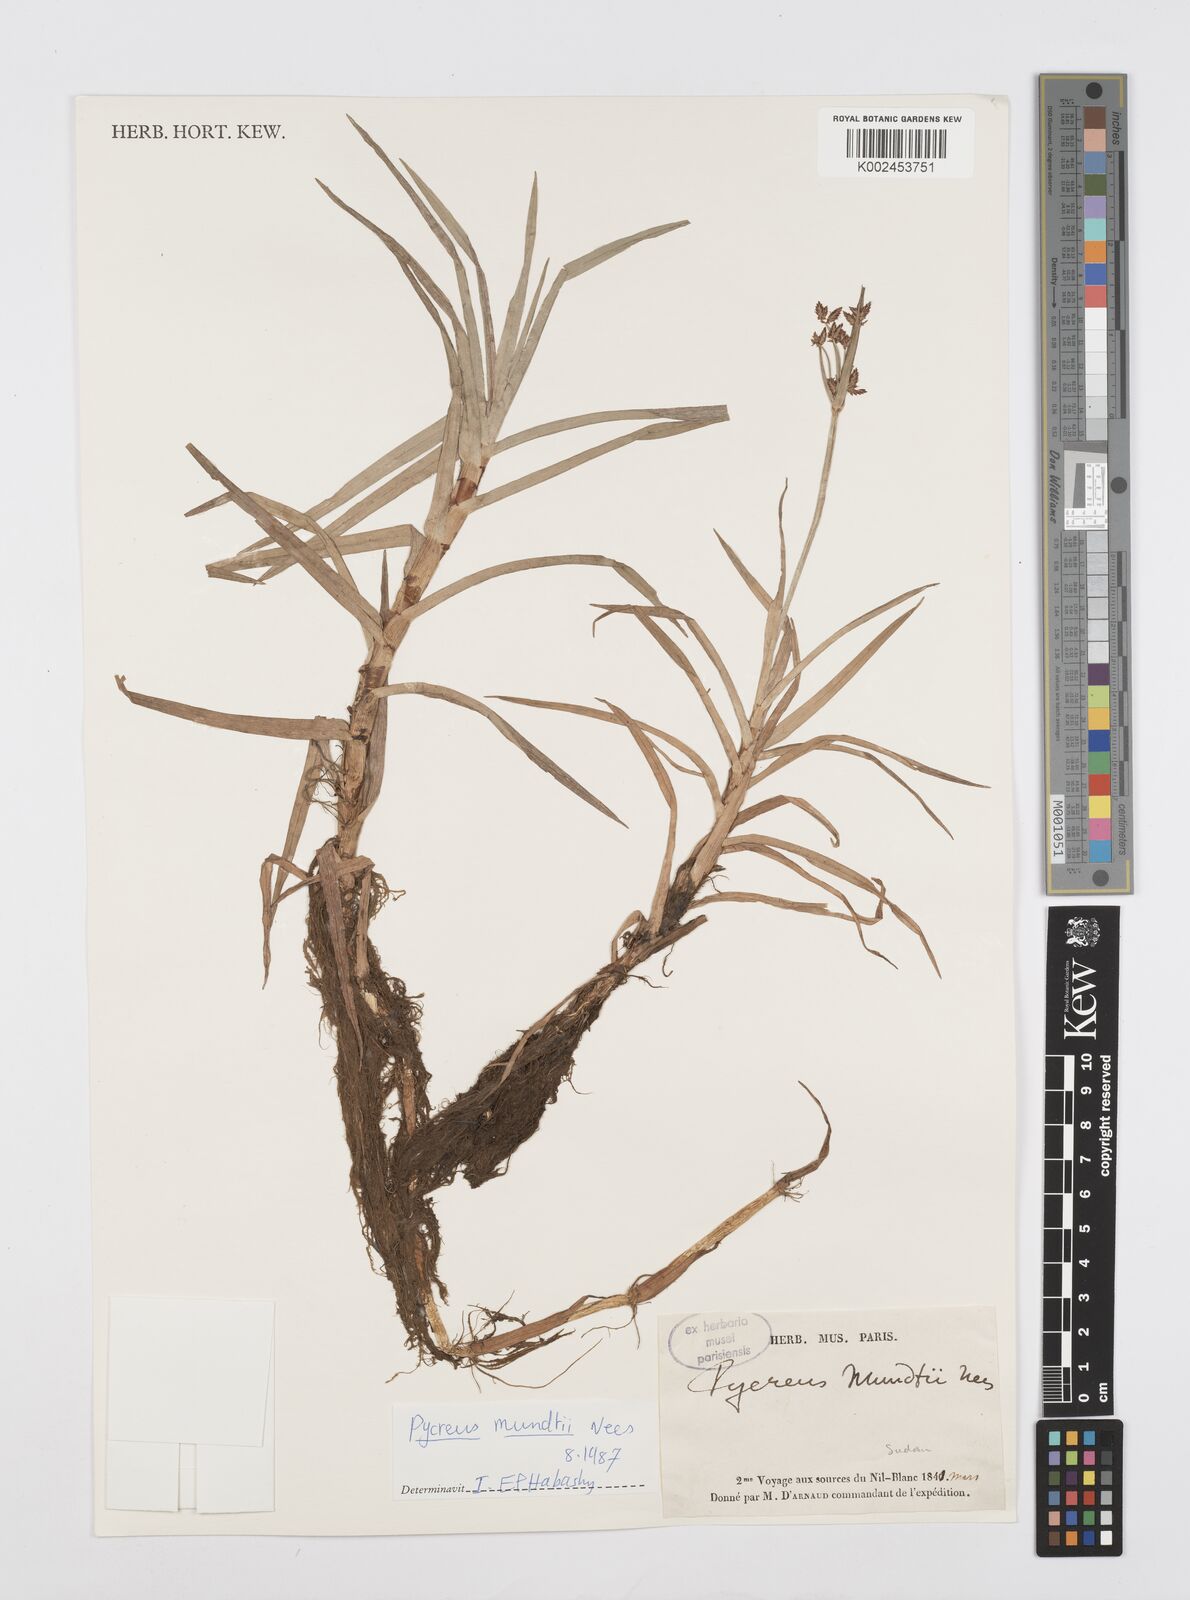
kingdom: Plantae
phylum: Tracheophyta
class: Liliopsida
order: Poales
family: Cyperaceae
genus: Cyperus
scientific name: Cyperus mundii
